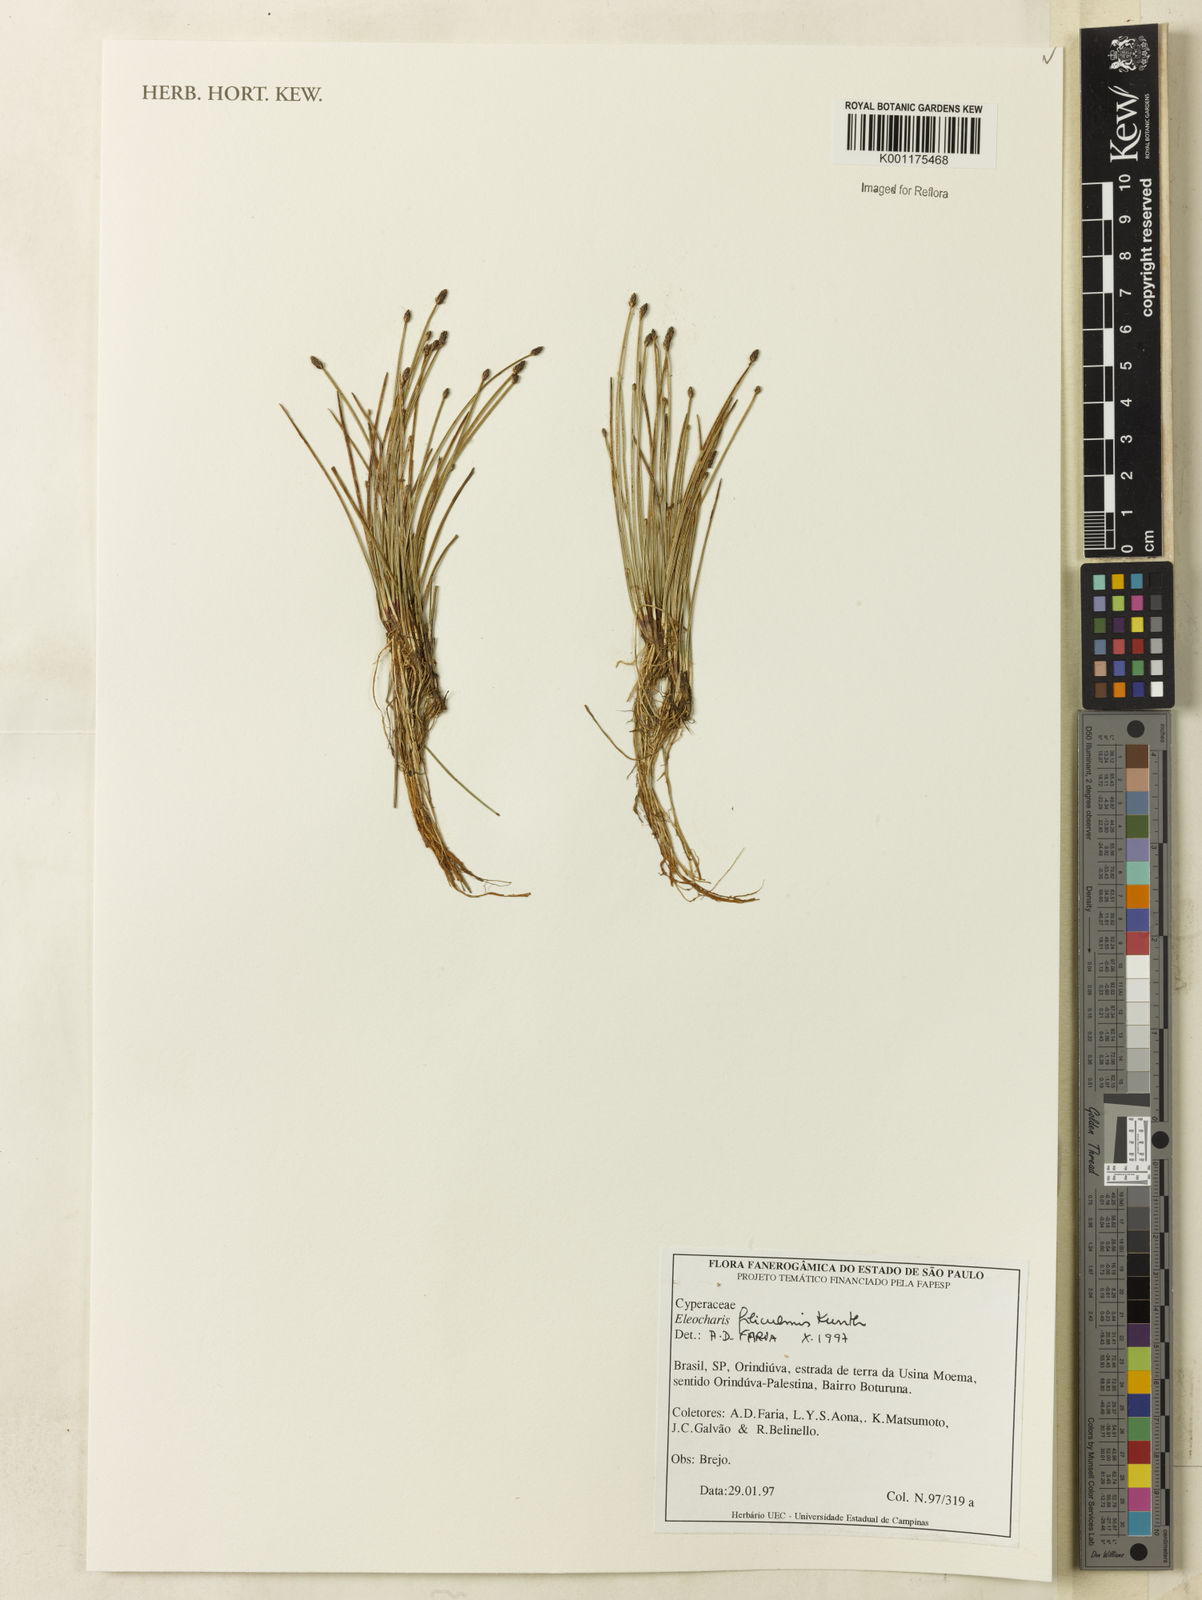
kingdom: Plantae
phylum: Tracheophyta
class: Liliopsida
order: Poales
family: Cyperaceae
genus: Eleocharis
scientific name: Eleocharis filiculmis
